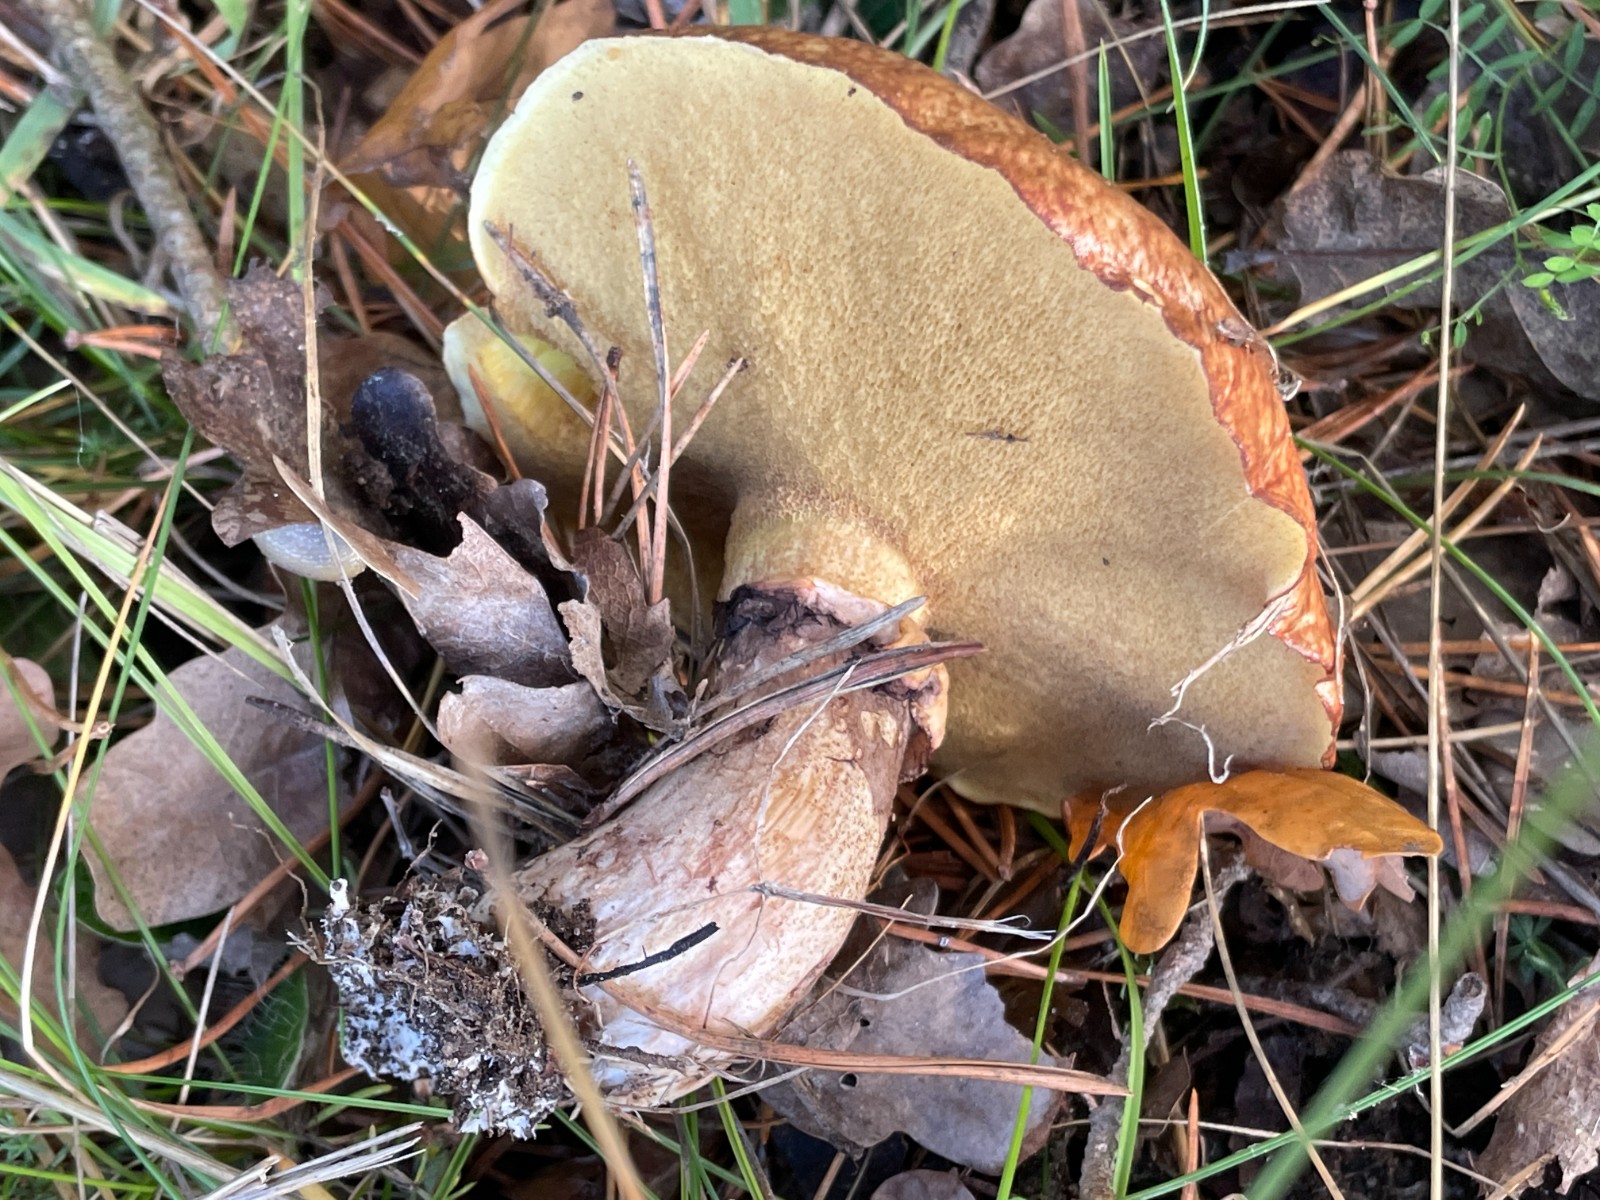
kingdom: Fungi
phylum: Basidiomycota
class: Agaricomycetes
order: Boletales
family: Suillaceae
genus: Suillus
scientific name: Suillus luteus
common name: brungul slimrørhat
